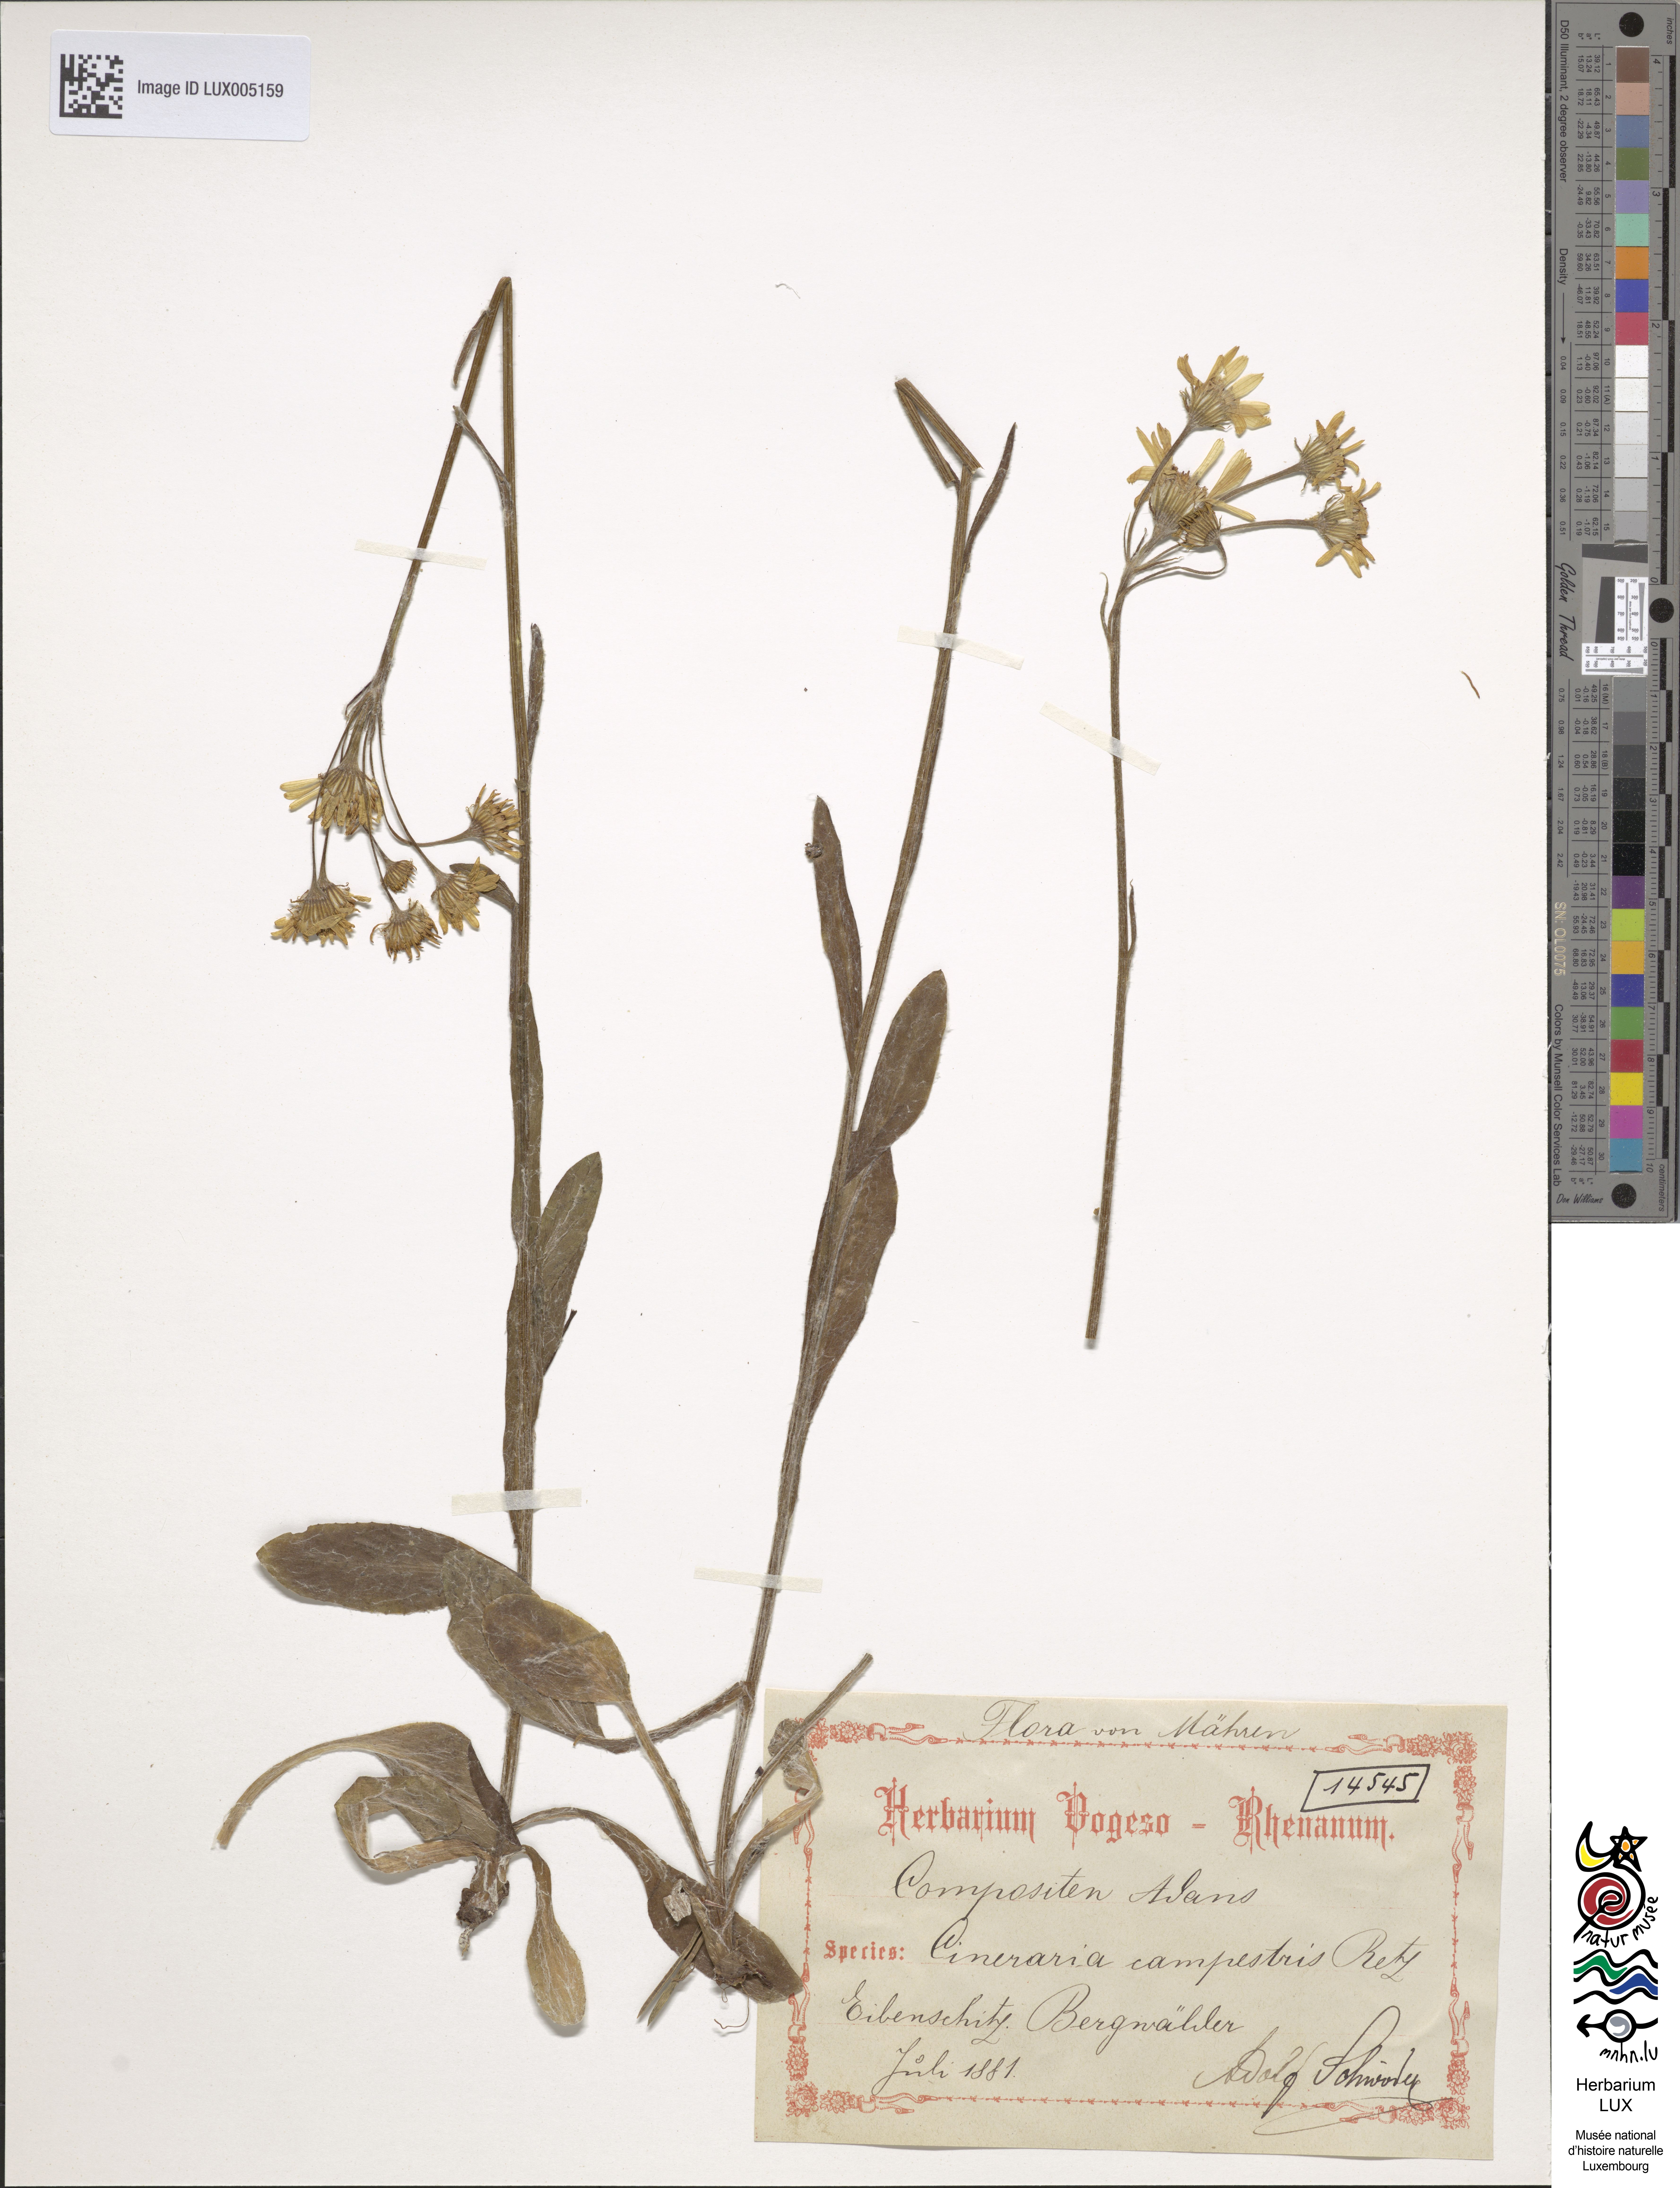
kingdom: Plantae
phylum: Tracheophyta
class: Magnoliopsida
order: Asterales
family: Asteraceae
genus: Tephroseris
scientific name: Tephroseris integrifolia
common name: Field fleawort
